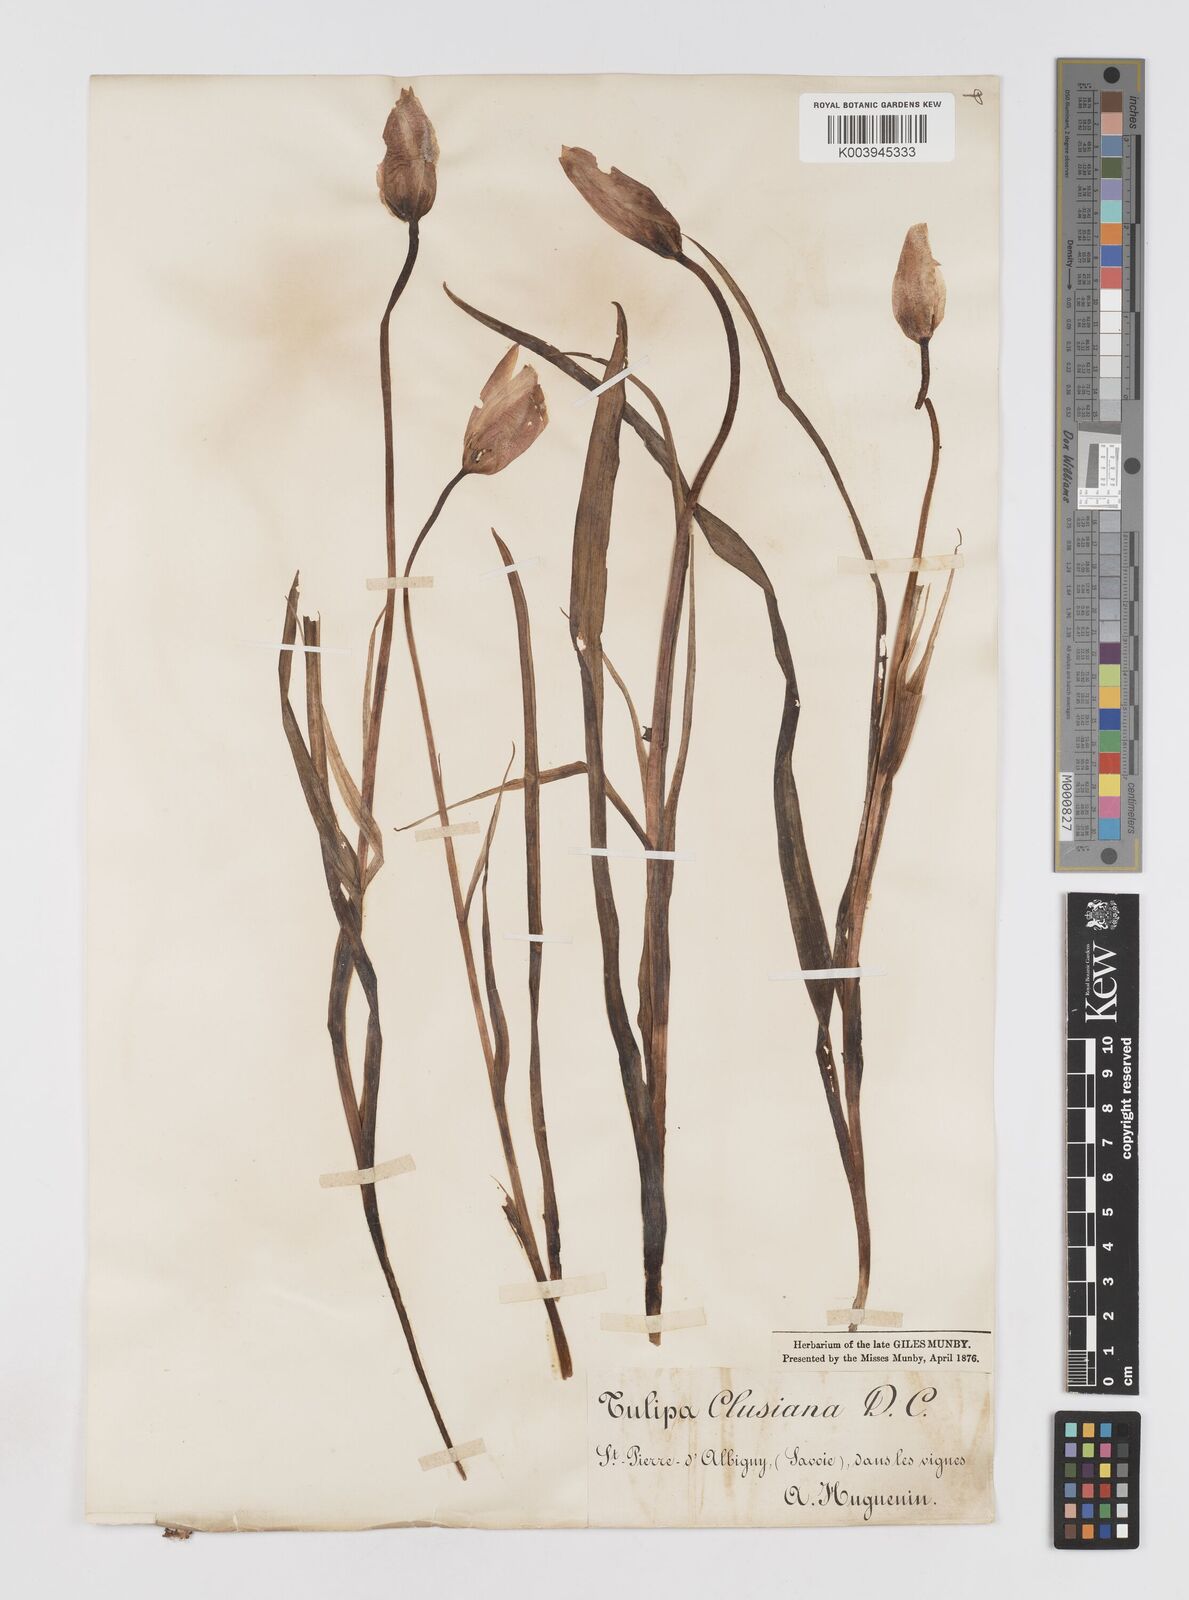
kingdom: Plantae
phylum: Tracheophyta
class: Liliopsida
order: Liliales
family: Liliaceae
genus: Tulipa
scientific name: Tulipa clusiana
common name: Lady tulip
